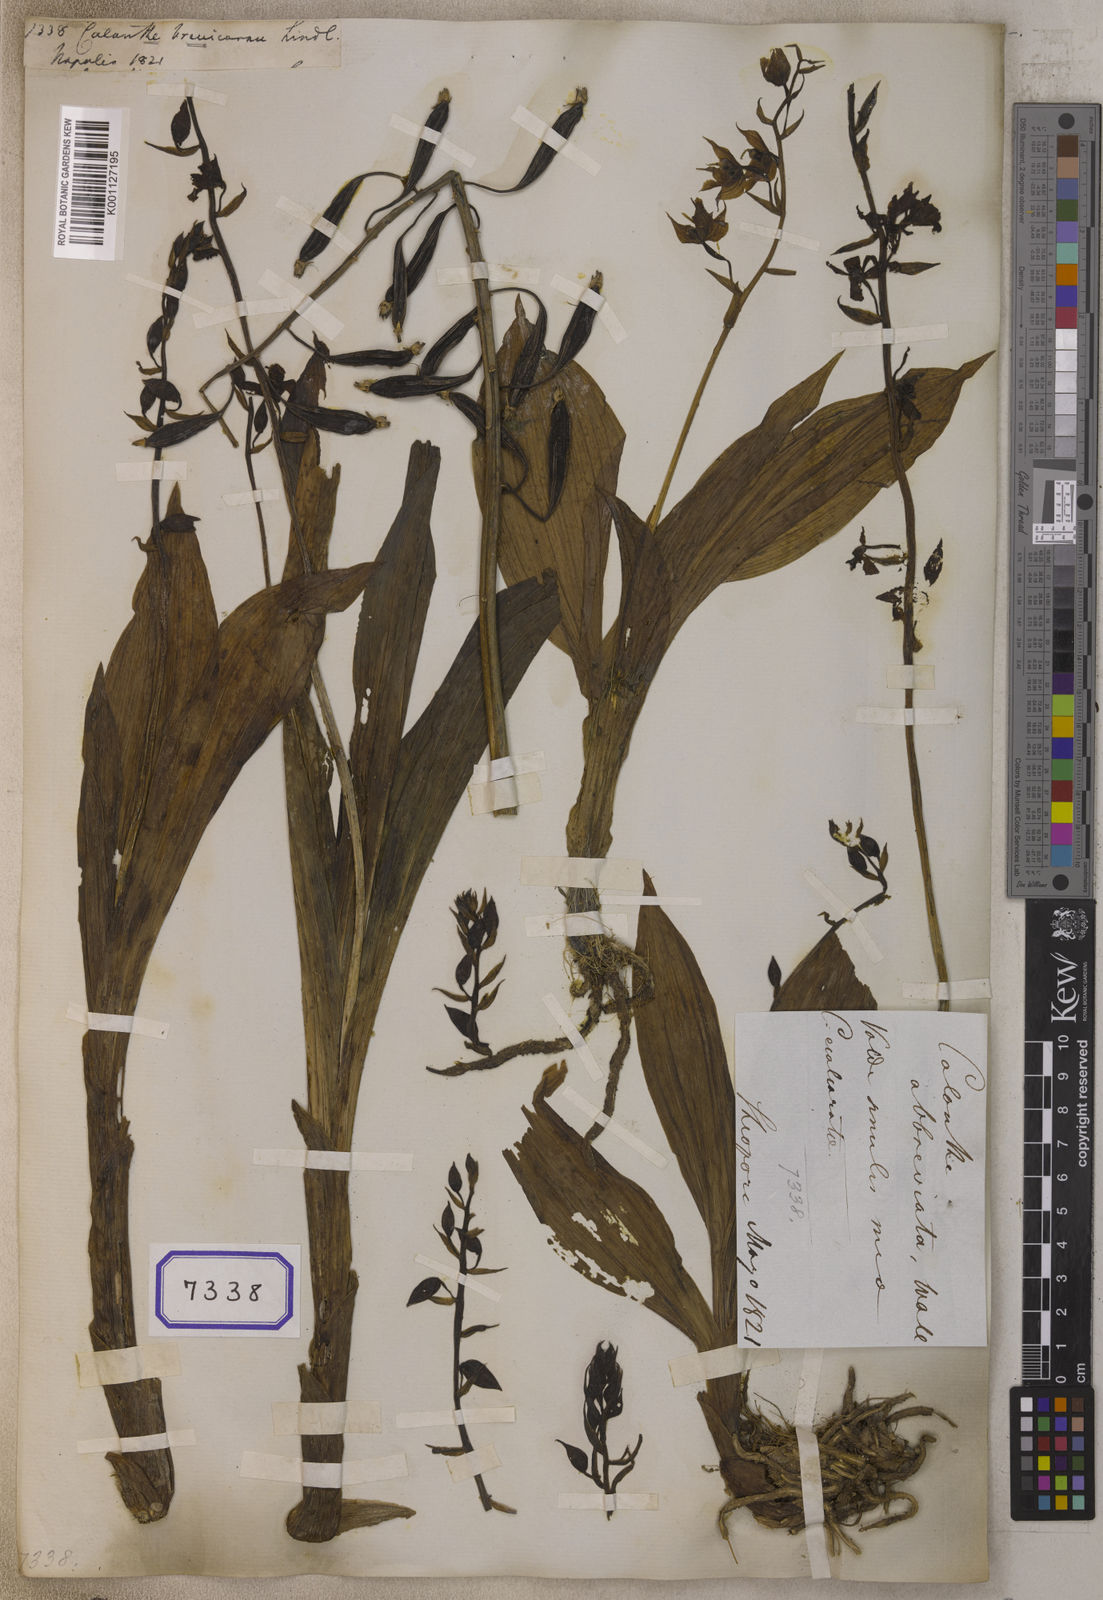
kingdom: Plantae
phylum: Tracheophyta
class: Liliopsida
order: Asparagales
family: Orchidaceae
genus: Calanthe
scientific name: Calanthe brevicornu
